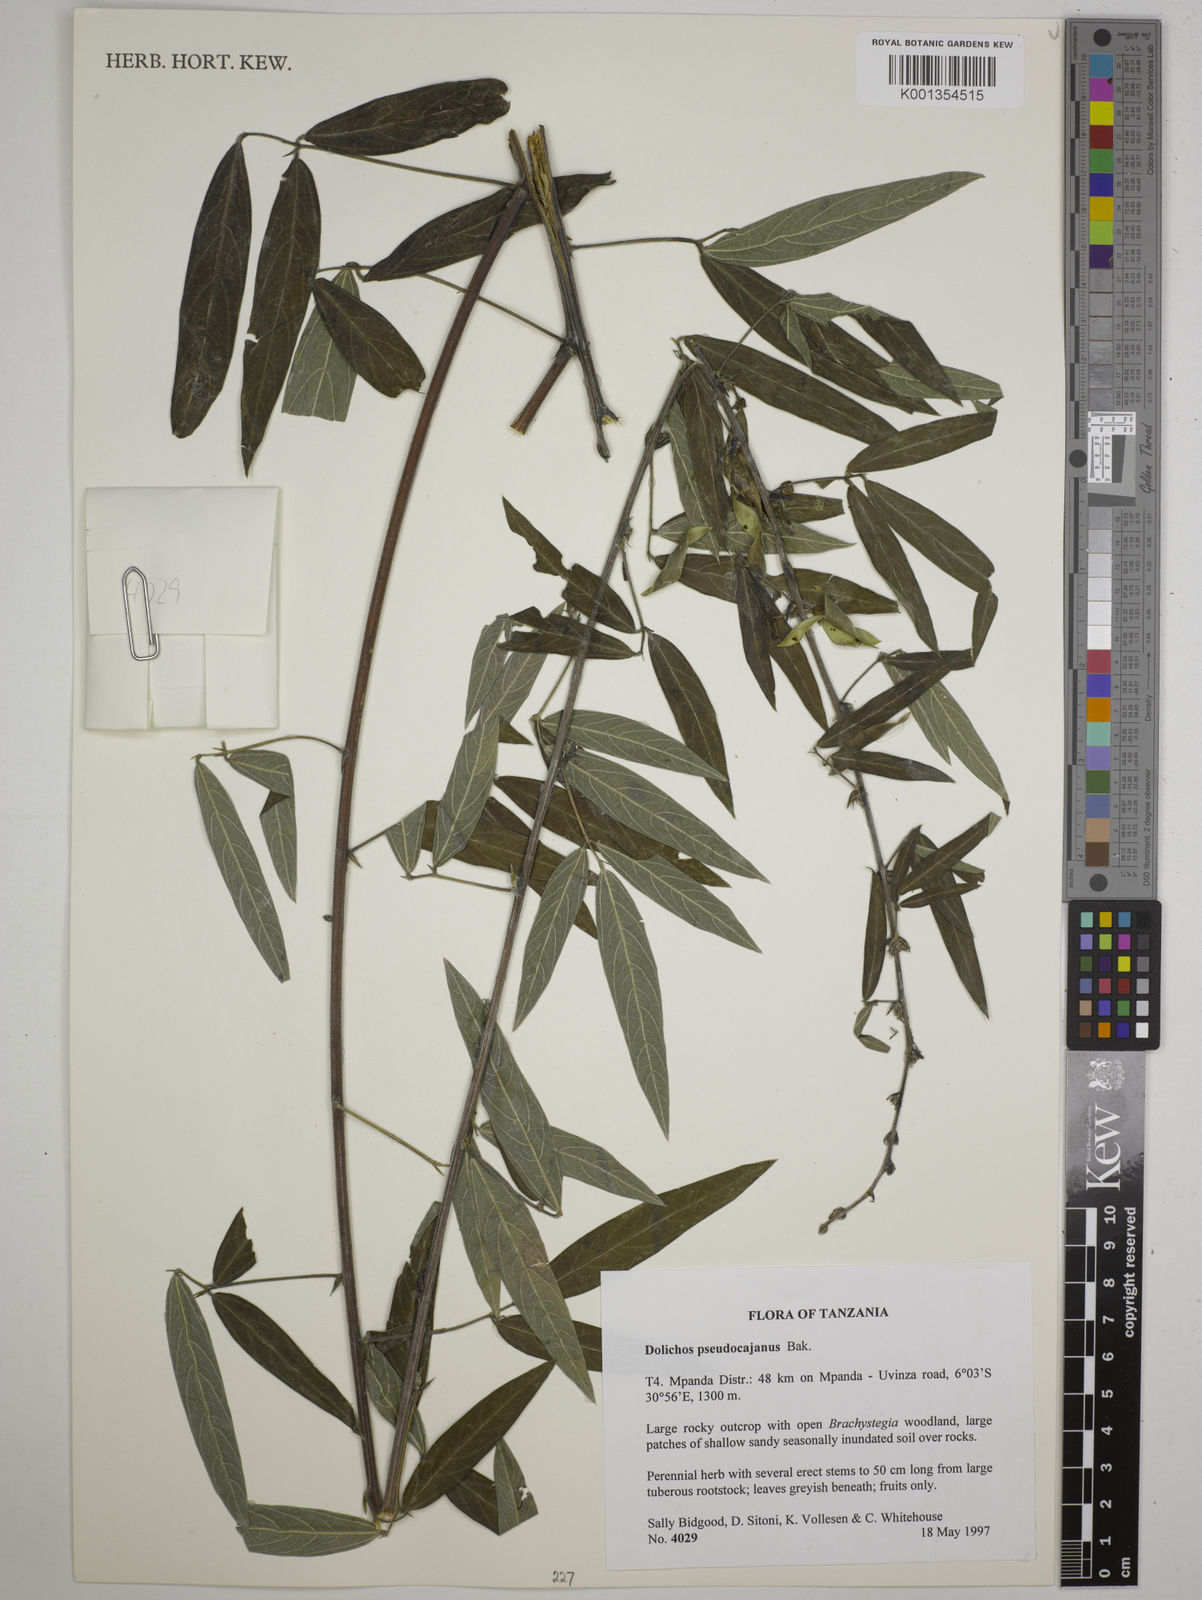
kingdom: Plantae
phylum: Tracheophyta
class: Magnoliopsida
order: Fabales
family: Fabaceae
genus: Dolichos
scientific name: Dolichos pseudocajanus
